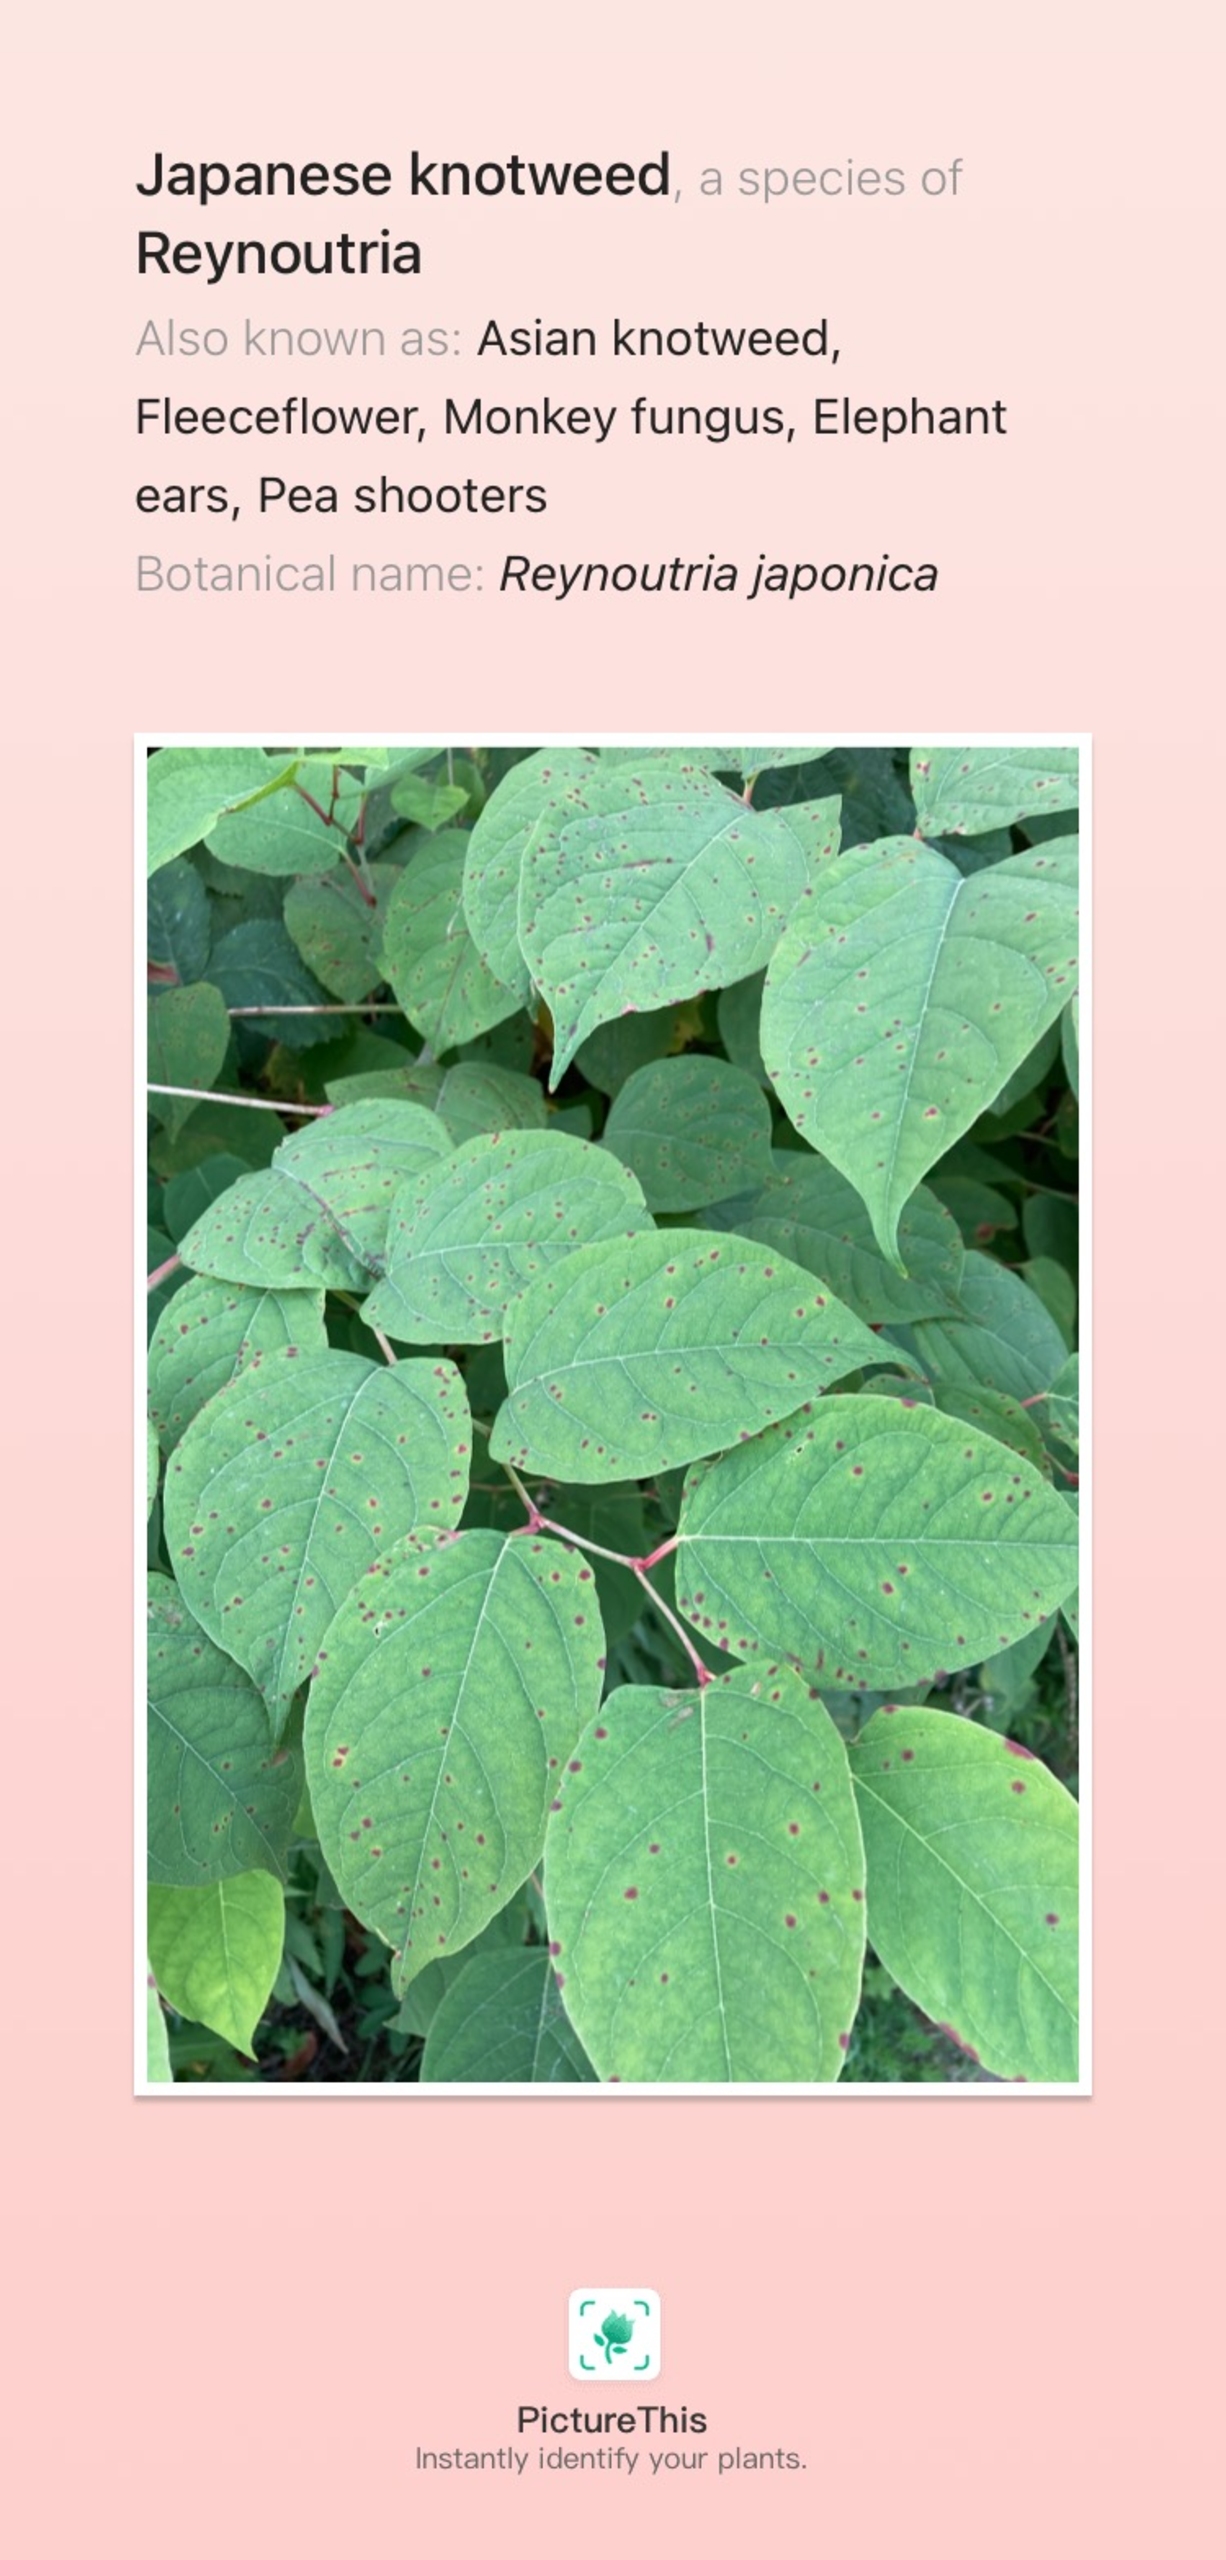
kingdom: Plantae
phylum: Tracheophyta
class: Magnoliopsida
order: Caryophyllales
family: Polygonaceae
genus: Reynoutria
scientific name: Reynoutria japonica
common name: Japan-pileurt
